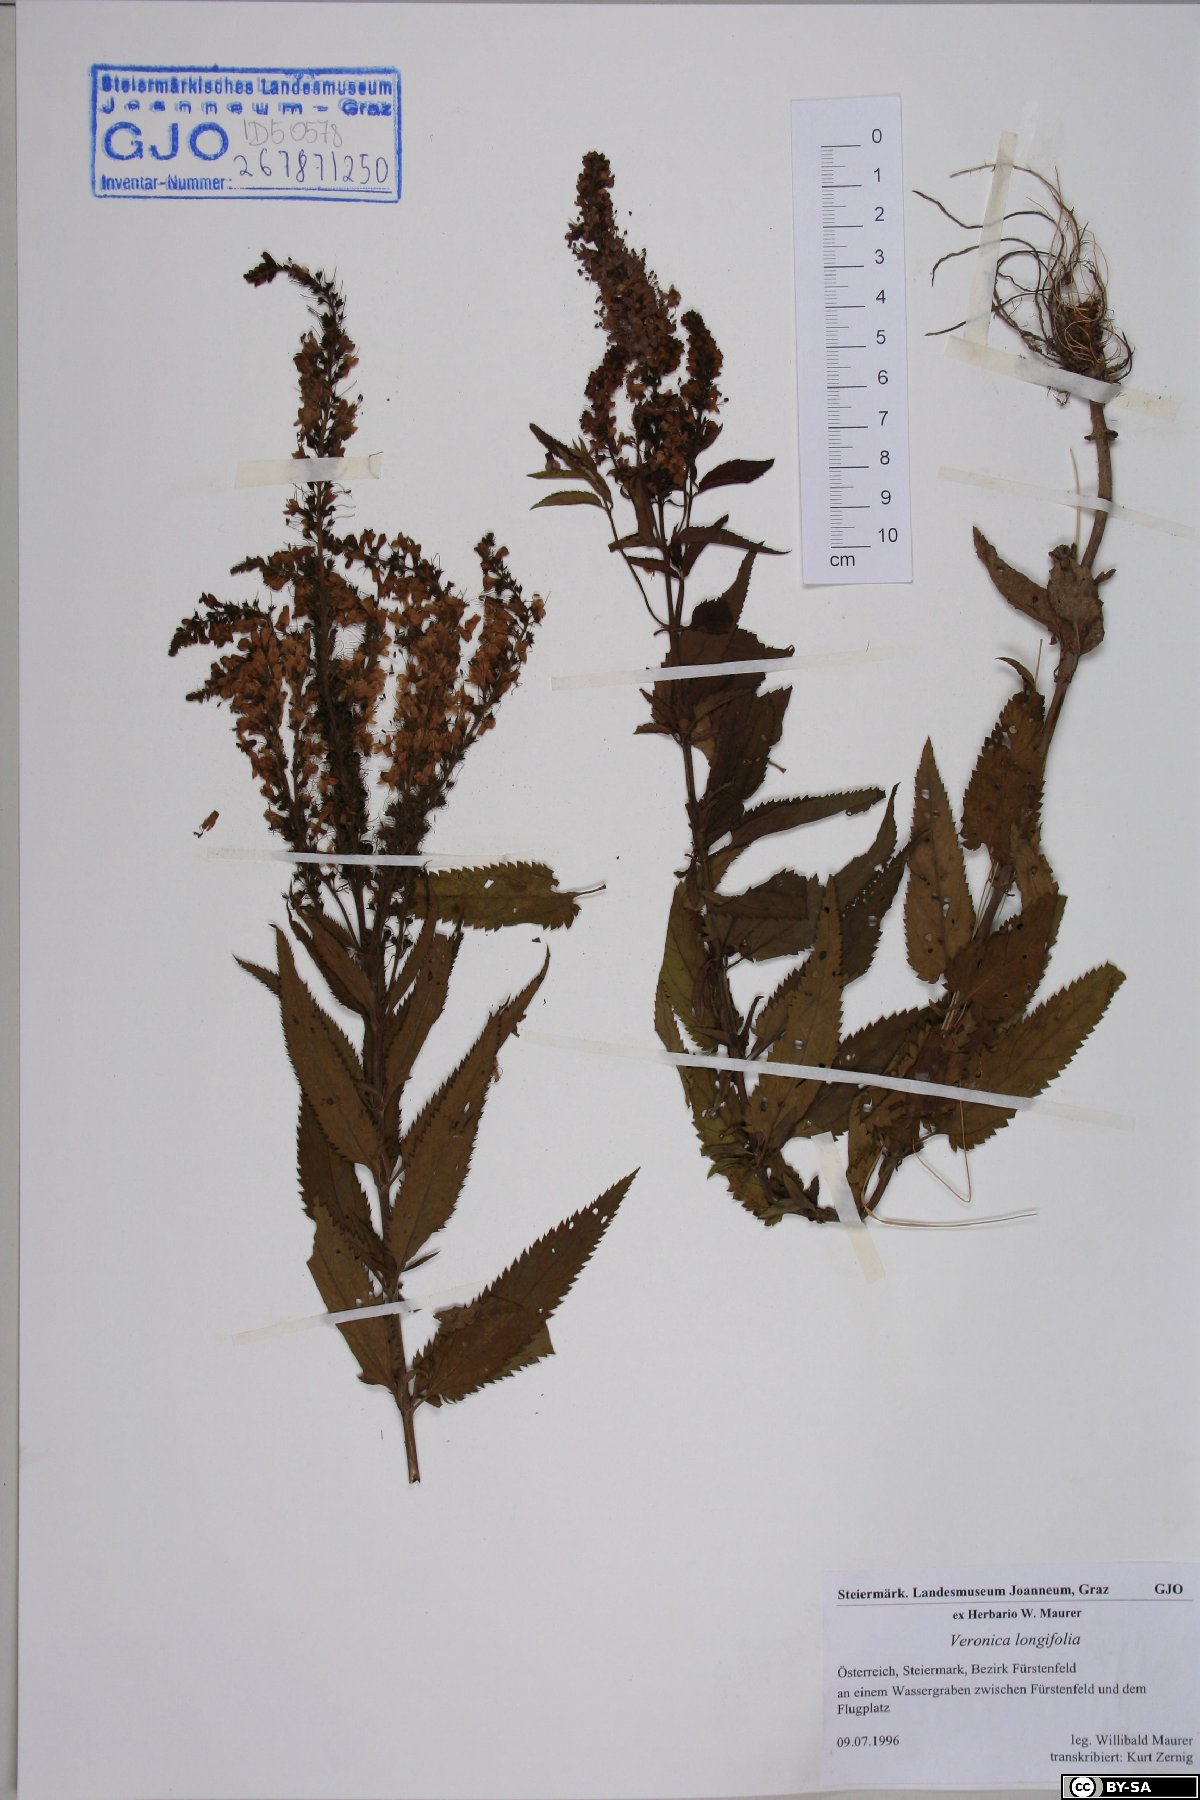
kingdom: Plantae
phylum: Tracheophyta
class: Magnoliopsida
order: Lamiales
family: Plantaginaceae
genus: Veronica
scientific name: Veronica longifolia
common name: Garden speedwell
